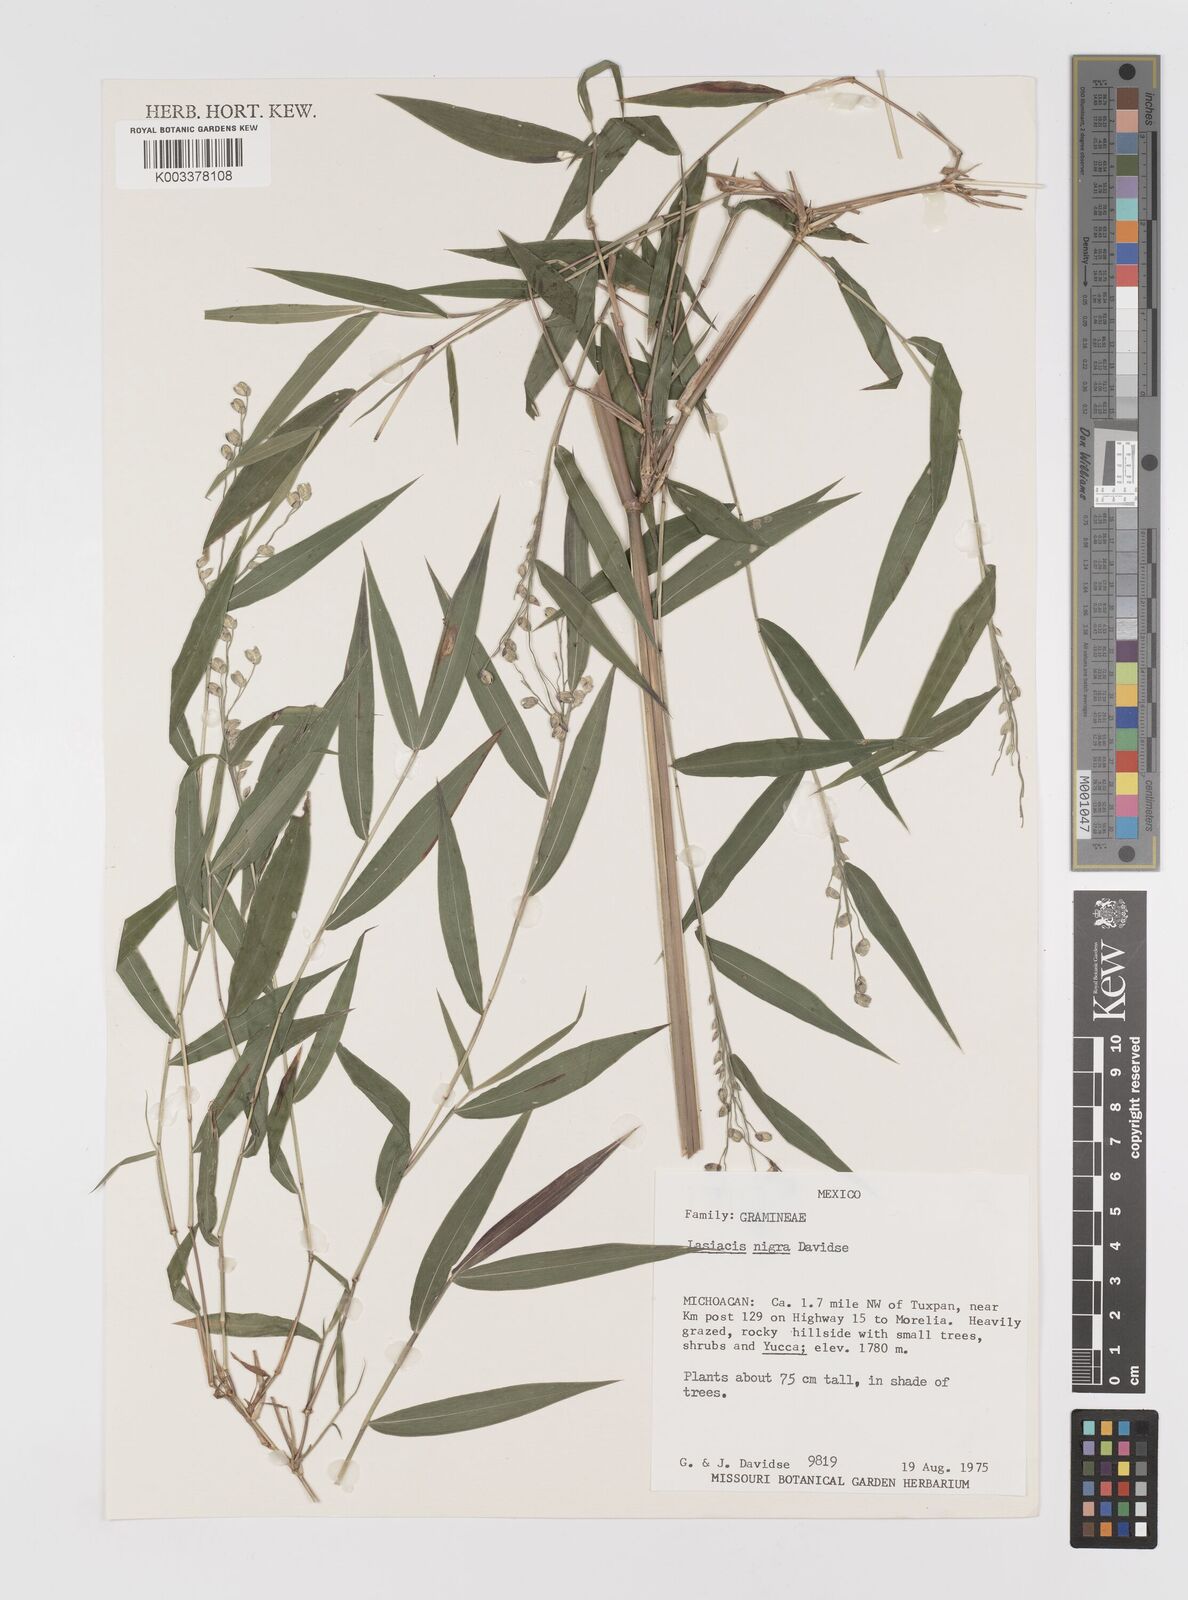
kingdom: Plantae
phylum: Tracheophyta
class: Liliopsida
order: Poales
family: Poaceae
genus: Lasiacis
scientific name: Lasiacis nigra
